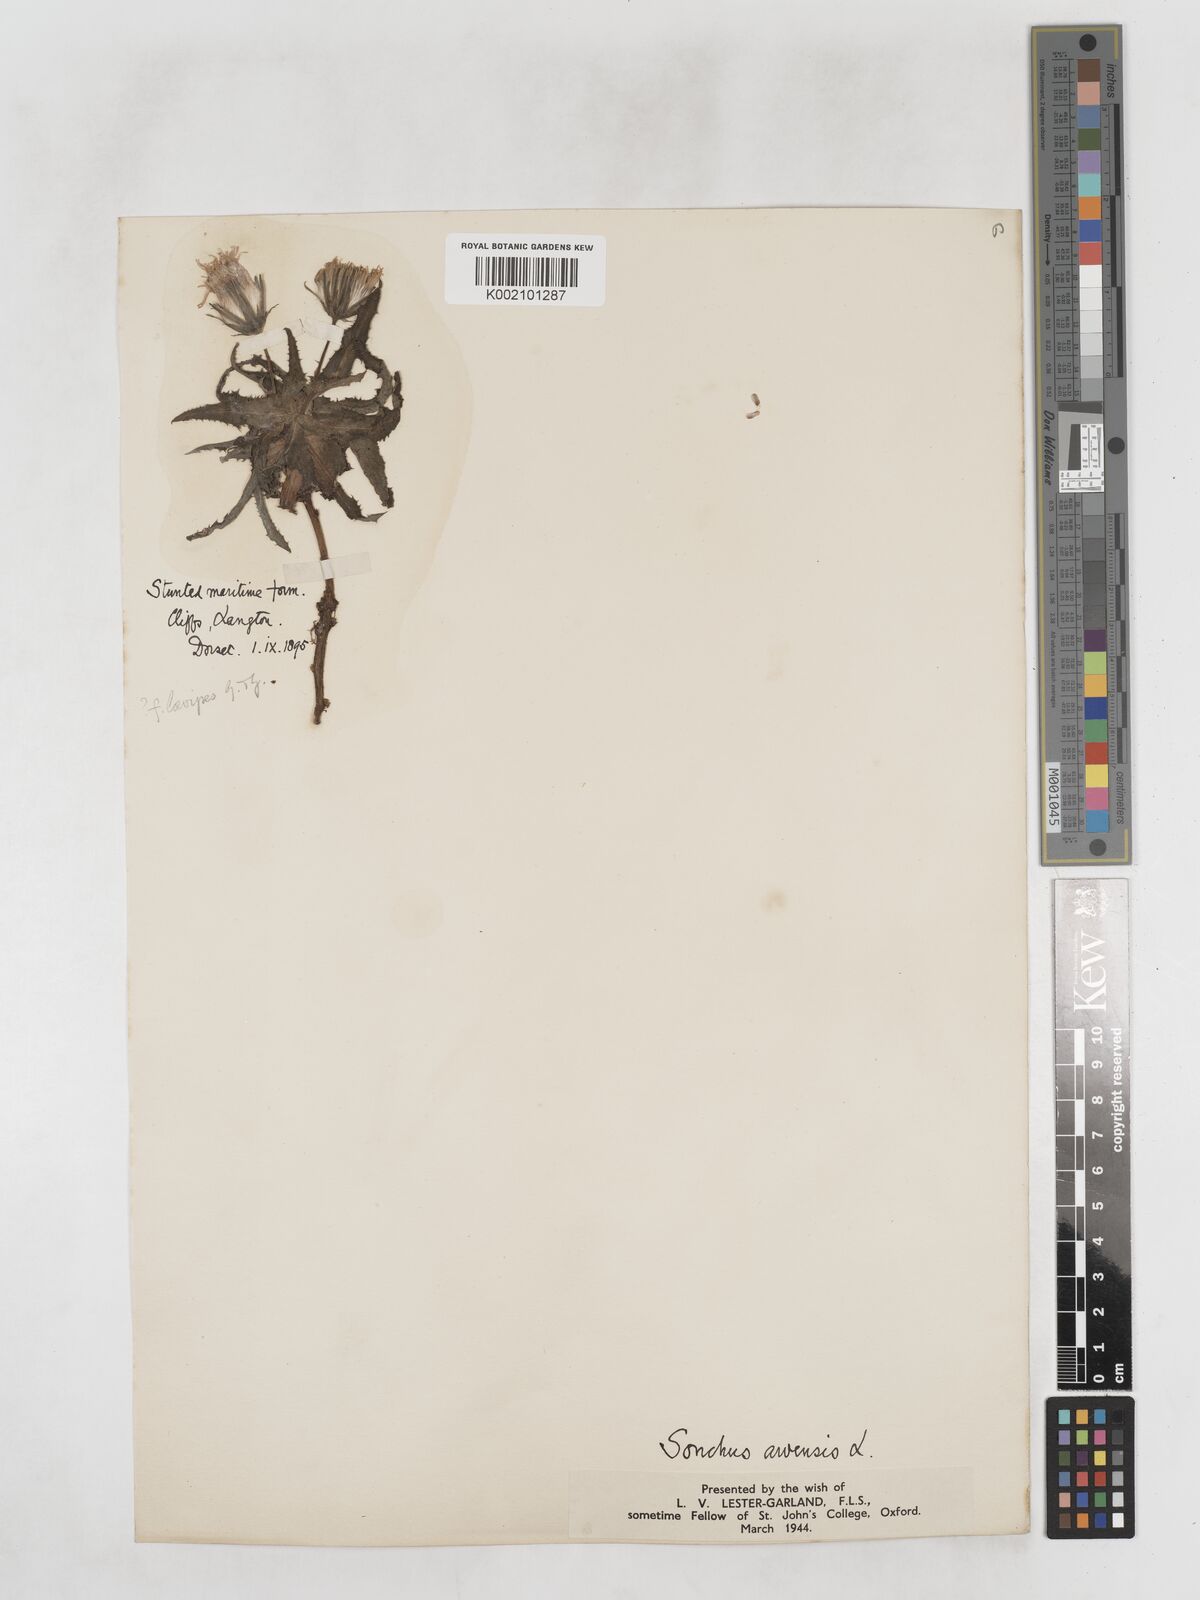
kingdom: Plantae
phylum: Tracheophyta
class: Magnoliopsida
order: Asterales
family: Asteraceae
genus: Sonchus
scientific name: Sonchus arvensis
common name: Perennial sow-thistle
